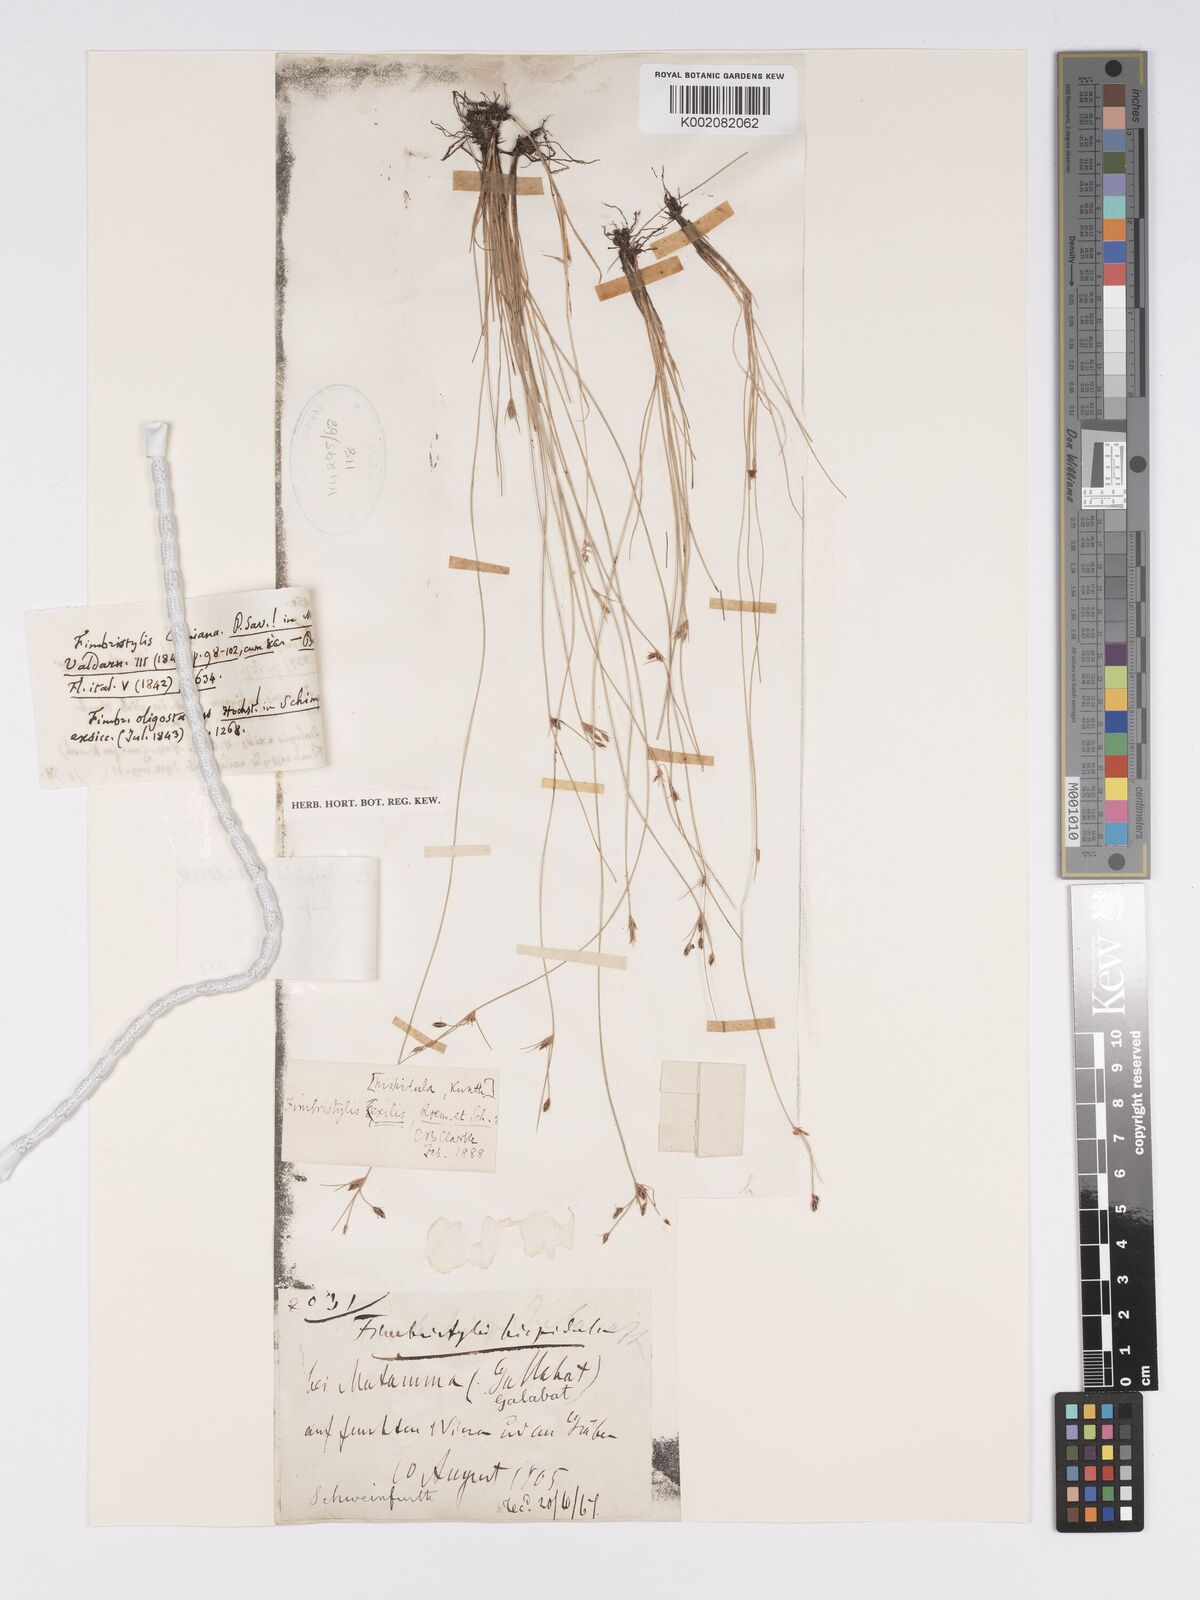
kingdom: Plantae
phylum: Tracheophyta
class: Liliopsida
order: Poales
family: Cyperaceae
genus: Bulbostylis
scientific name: Bulbostylis hispidula
